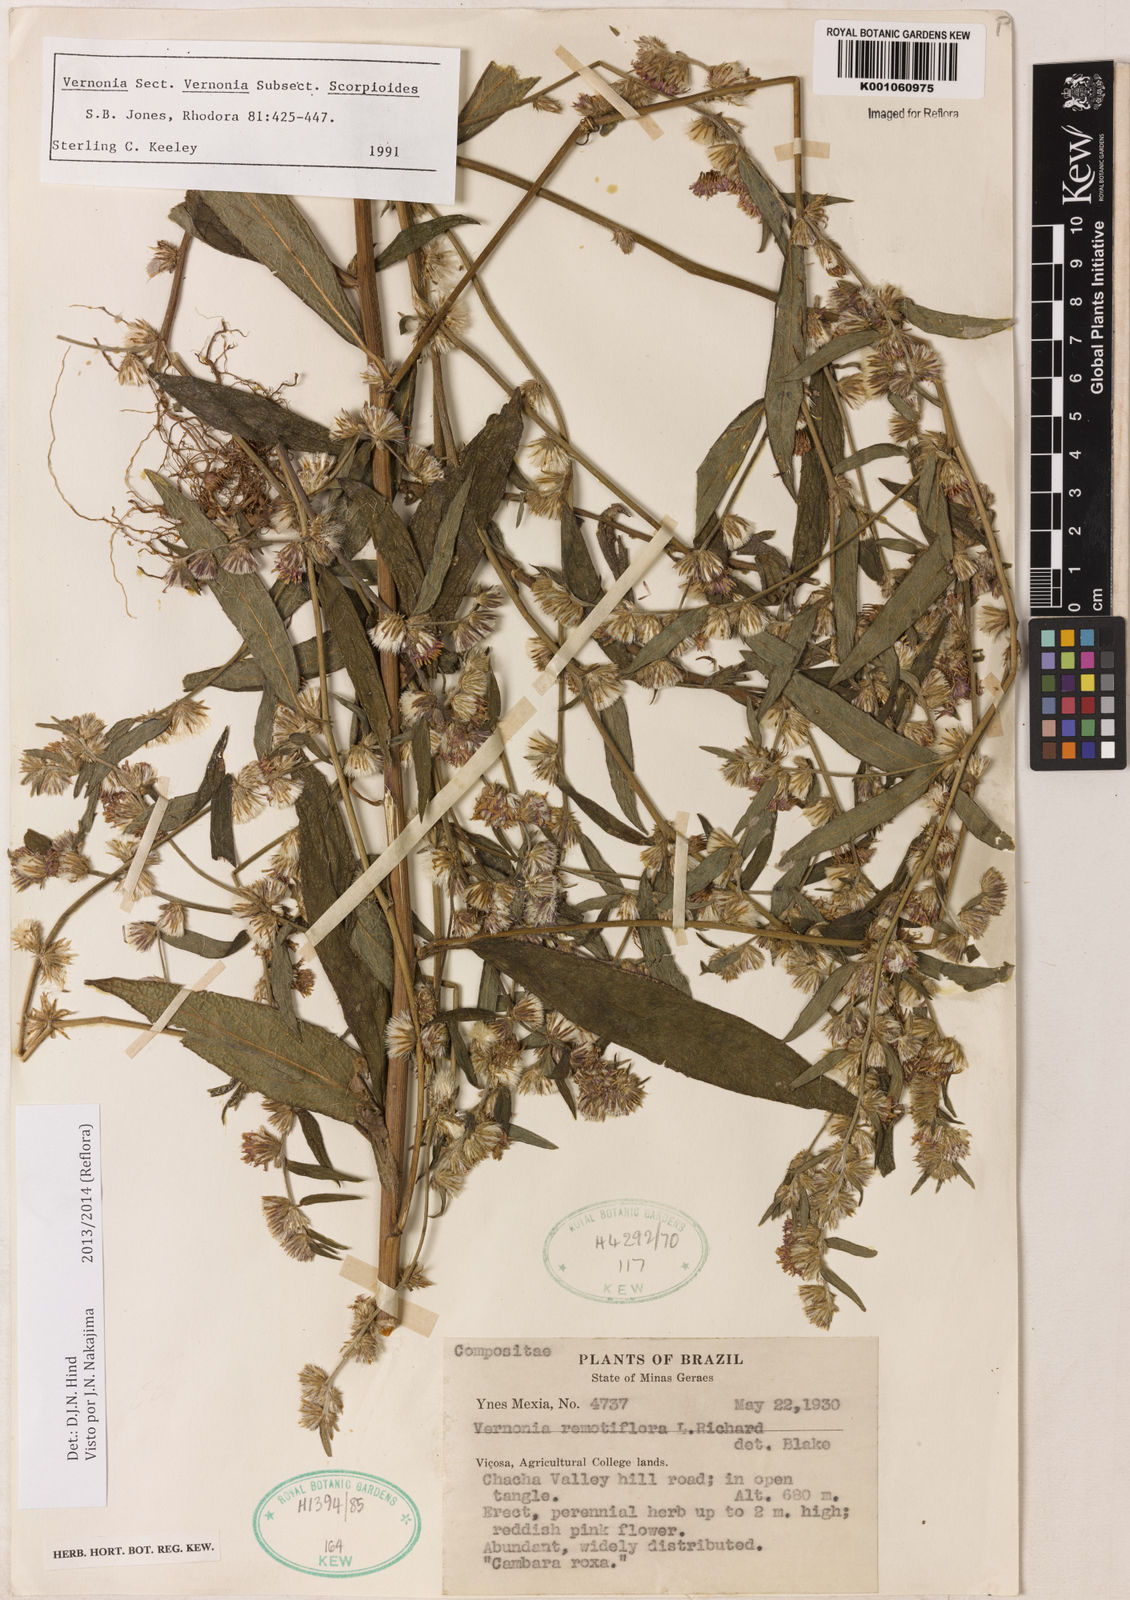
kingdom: Plantae
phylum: Tracheophyta
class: Magnoliopsida
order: Asterales
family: Asteraceae
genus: Lepidaploa
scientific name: Lepidaploa salzmannii
